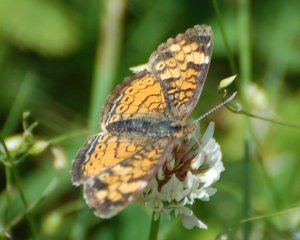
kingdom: Animalia
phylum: Arthropoda
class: Insecta
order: Lepidoptera
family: Nymphalidae
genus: Phyciodes
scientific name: Phyciodes tharos
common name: Northern Crescent
